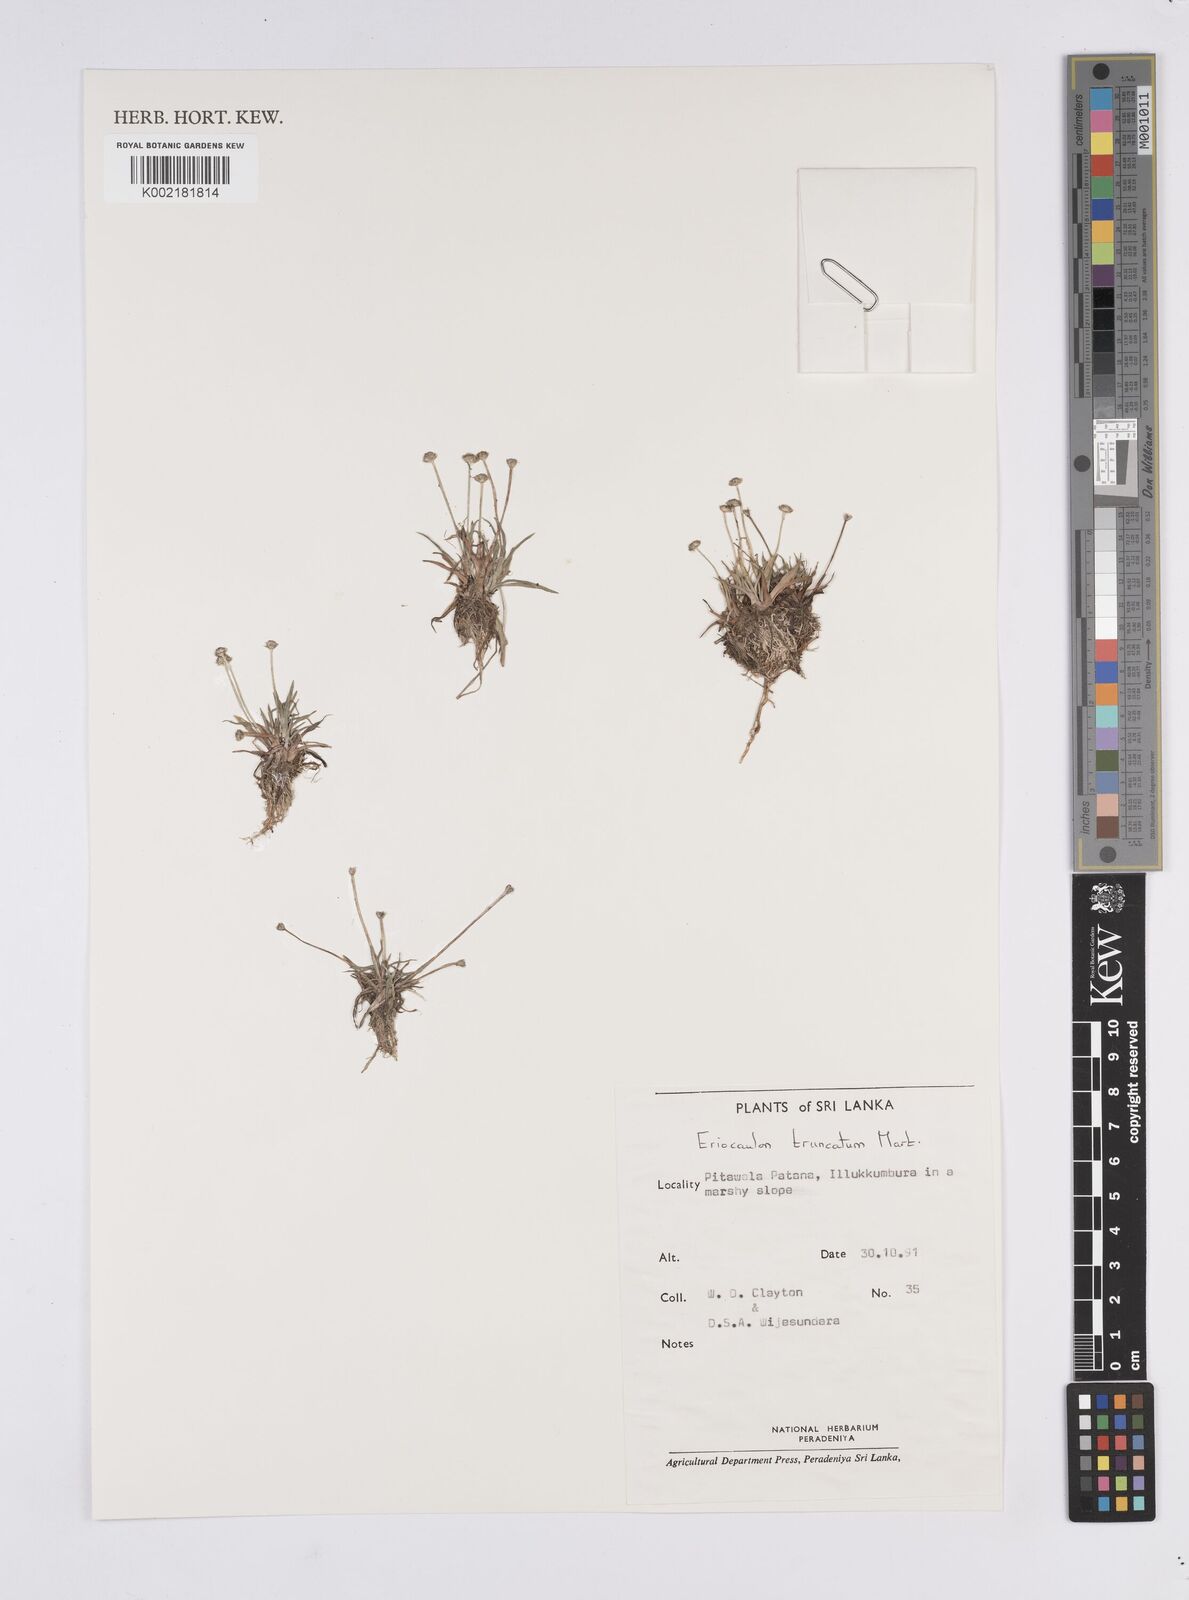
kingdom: Plantae
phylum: Tracheophyta
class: Liliopsida
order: Poales
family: Eriocaulaceae
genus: Eriocaulon
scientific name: Eriocaulon truncatum
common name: Short pipe-wort
